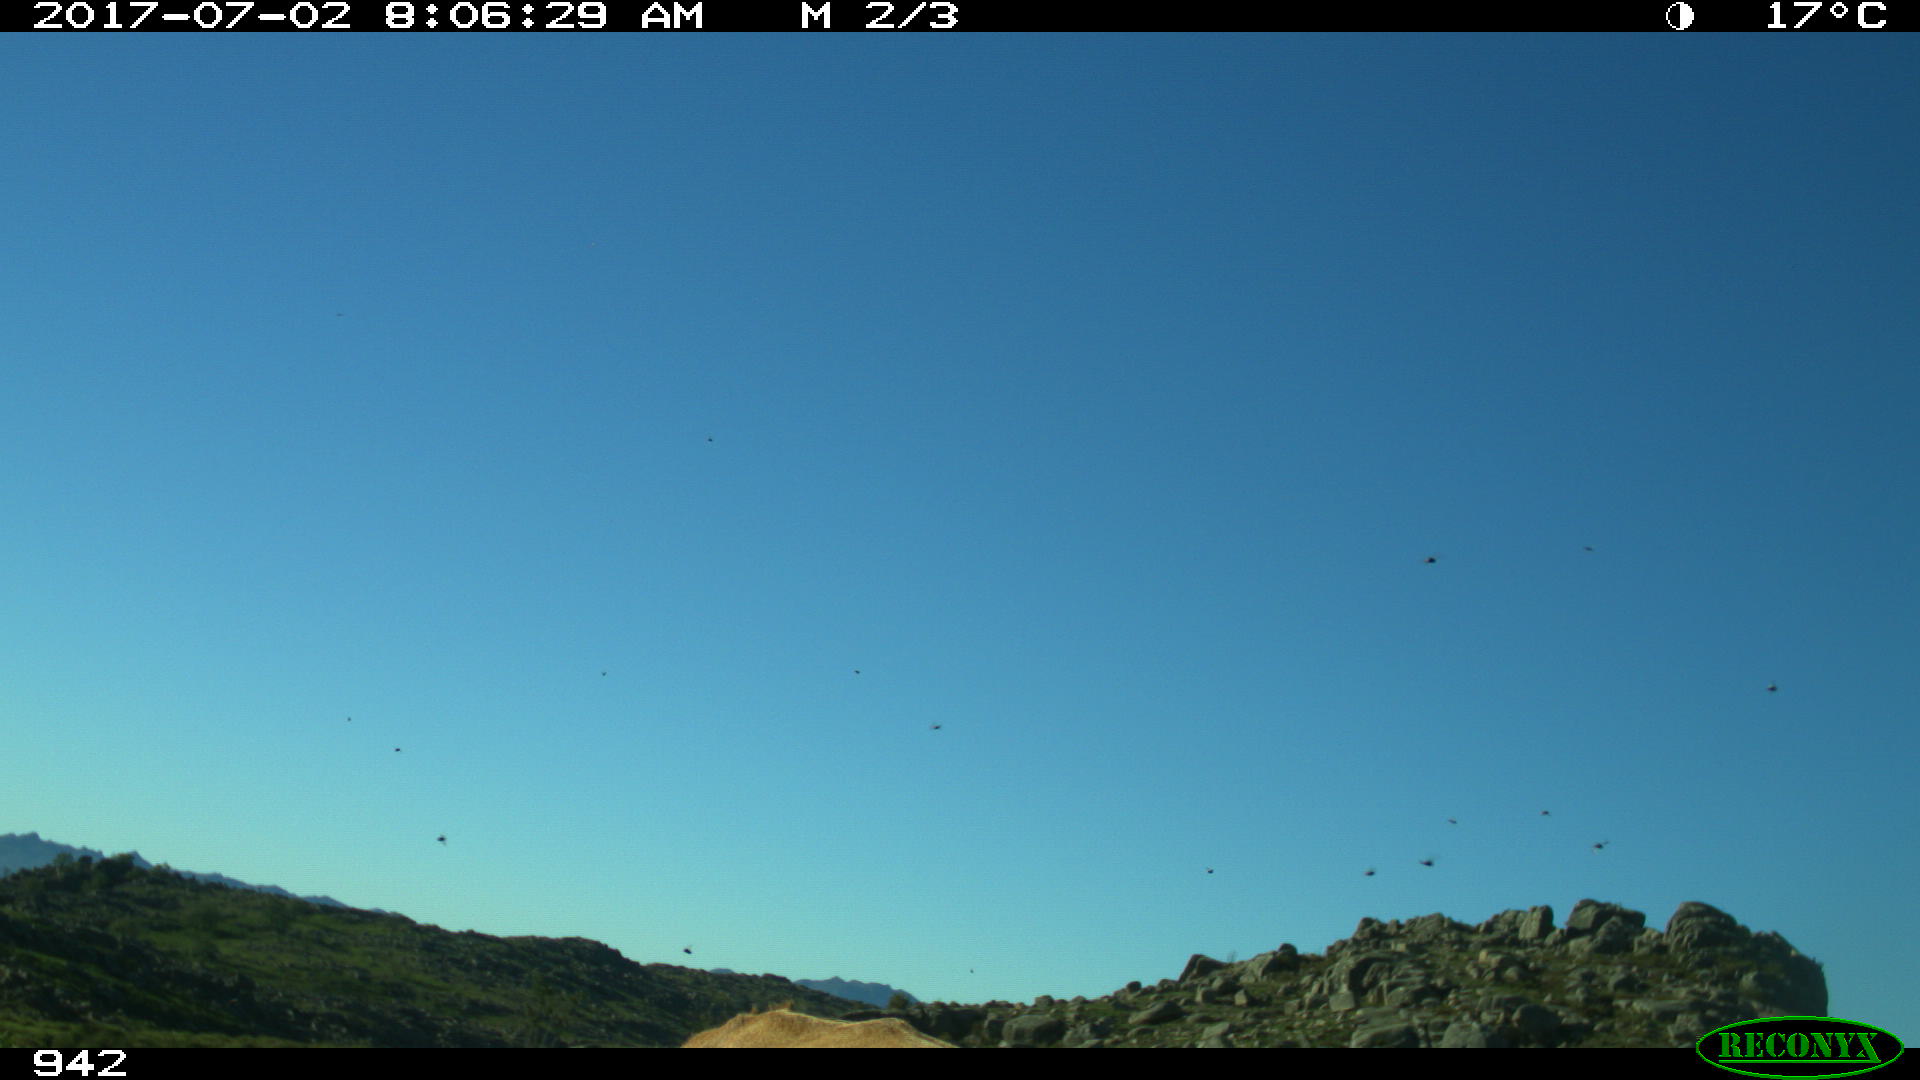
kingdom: Animalia
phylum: Chordata
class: Mammalia
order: Artiodactyla
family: Bovidae
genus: Bos
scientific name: Bos taurus
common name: Domesticated cattle
